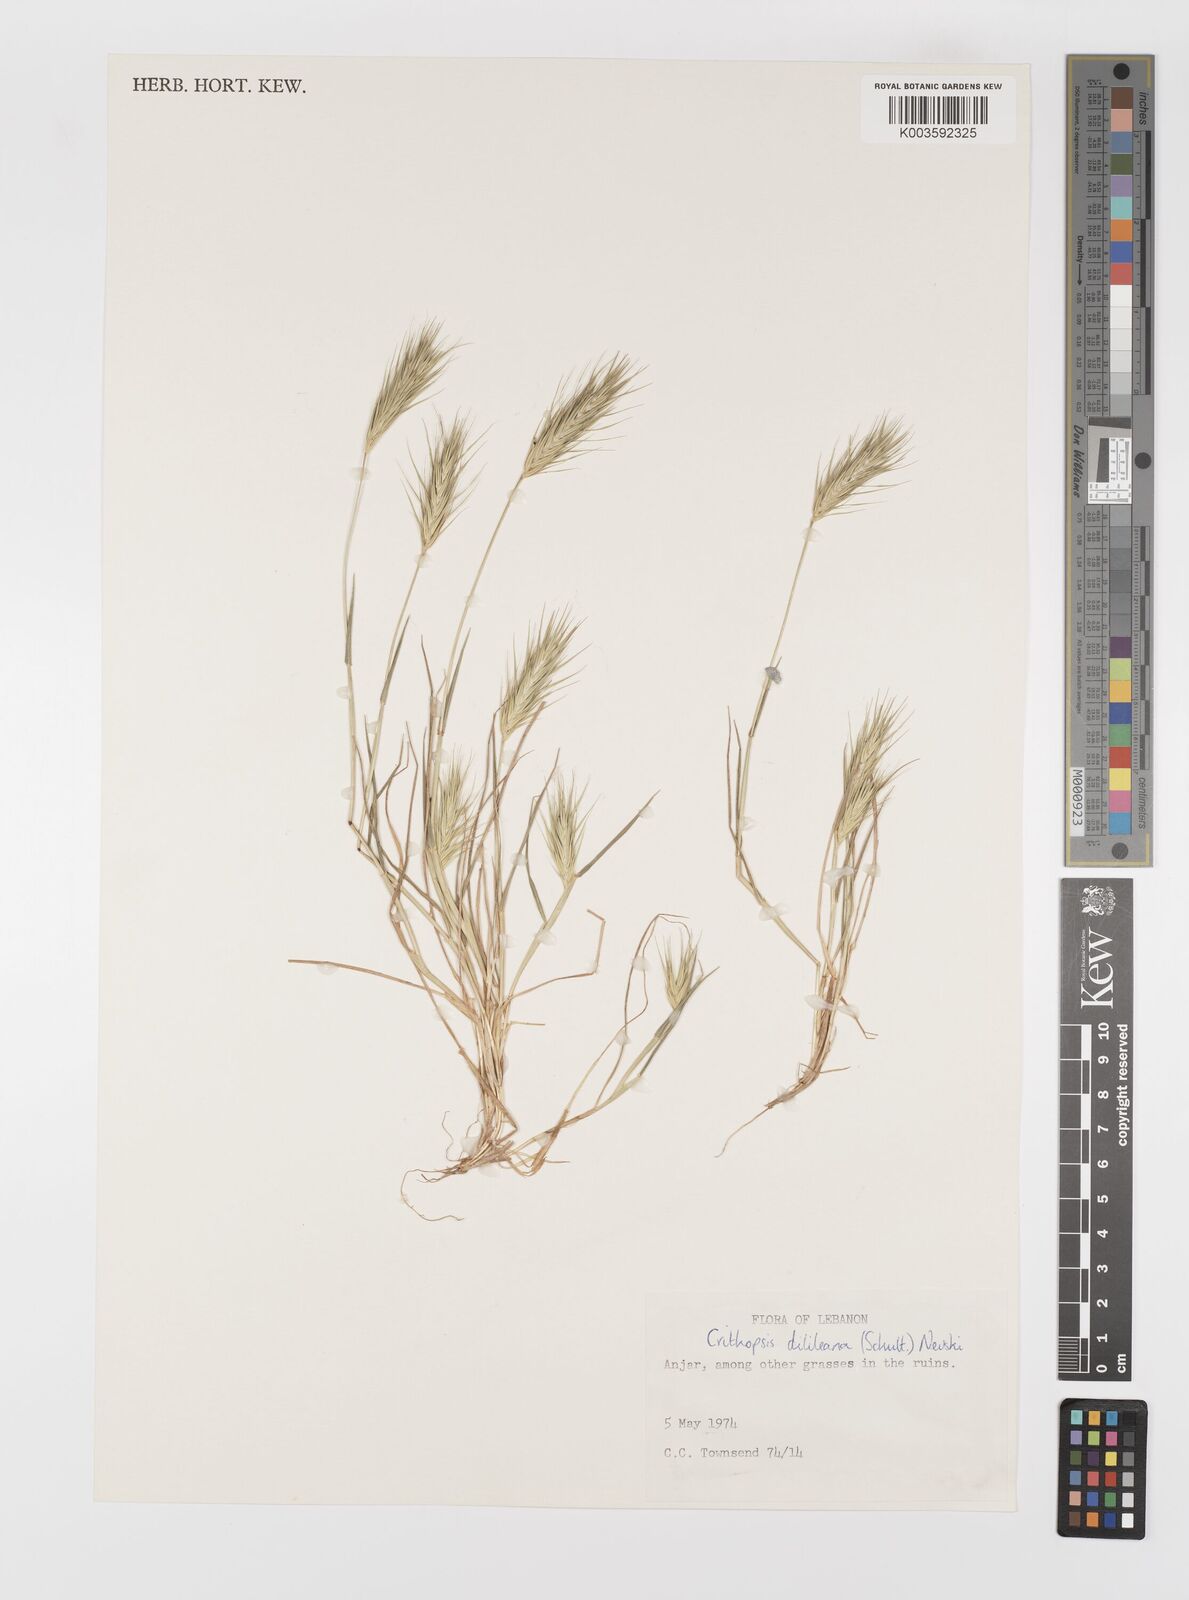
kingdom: Plantae
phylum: Tracheophyta
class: Liliopsida
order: Poales
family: Poaceae
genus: Crithopsis
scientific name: Crithopsis delileana
